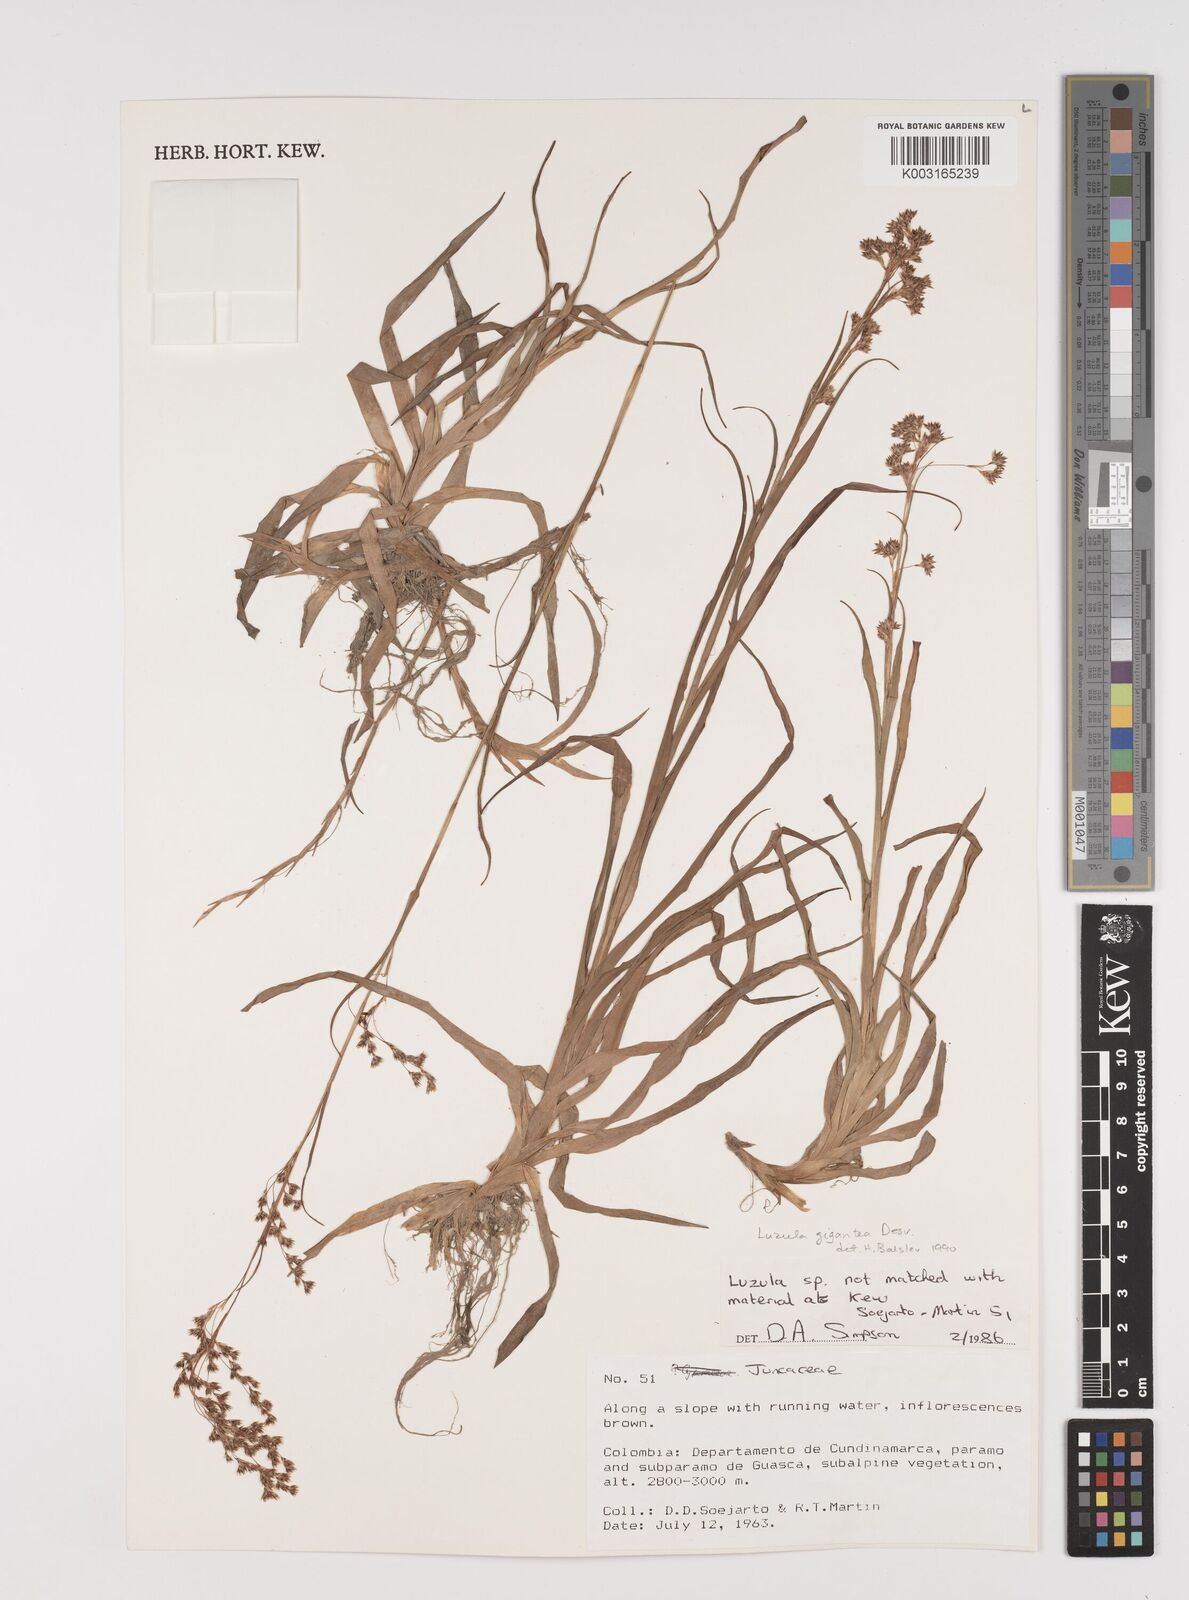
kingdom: Plantae
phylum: Tracheophyta
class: Liliopsida
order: Poales
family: Juncaceae
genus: Luzula
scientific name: Luzula gigantea
